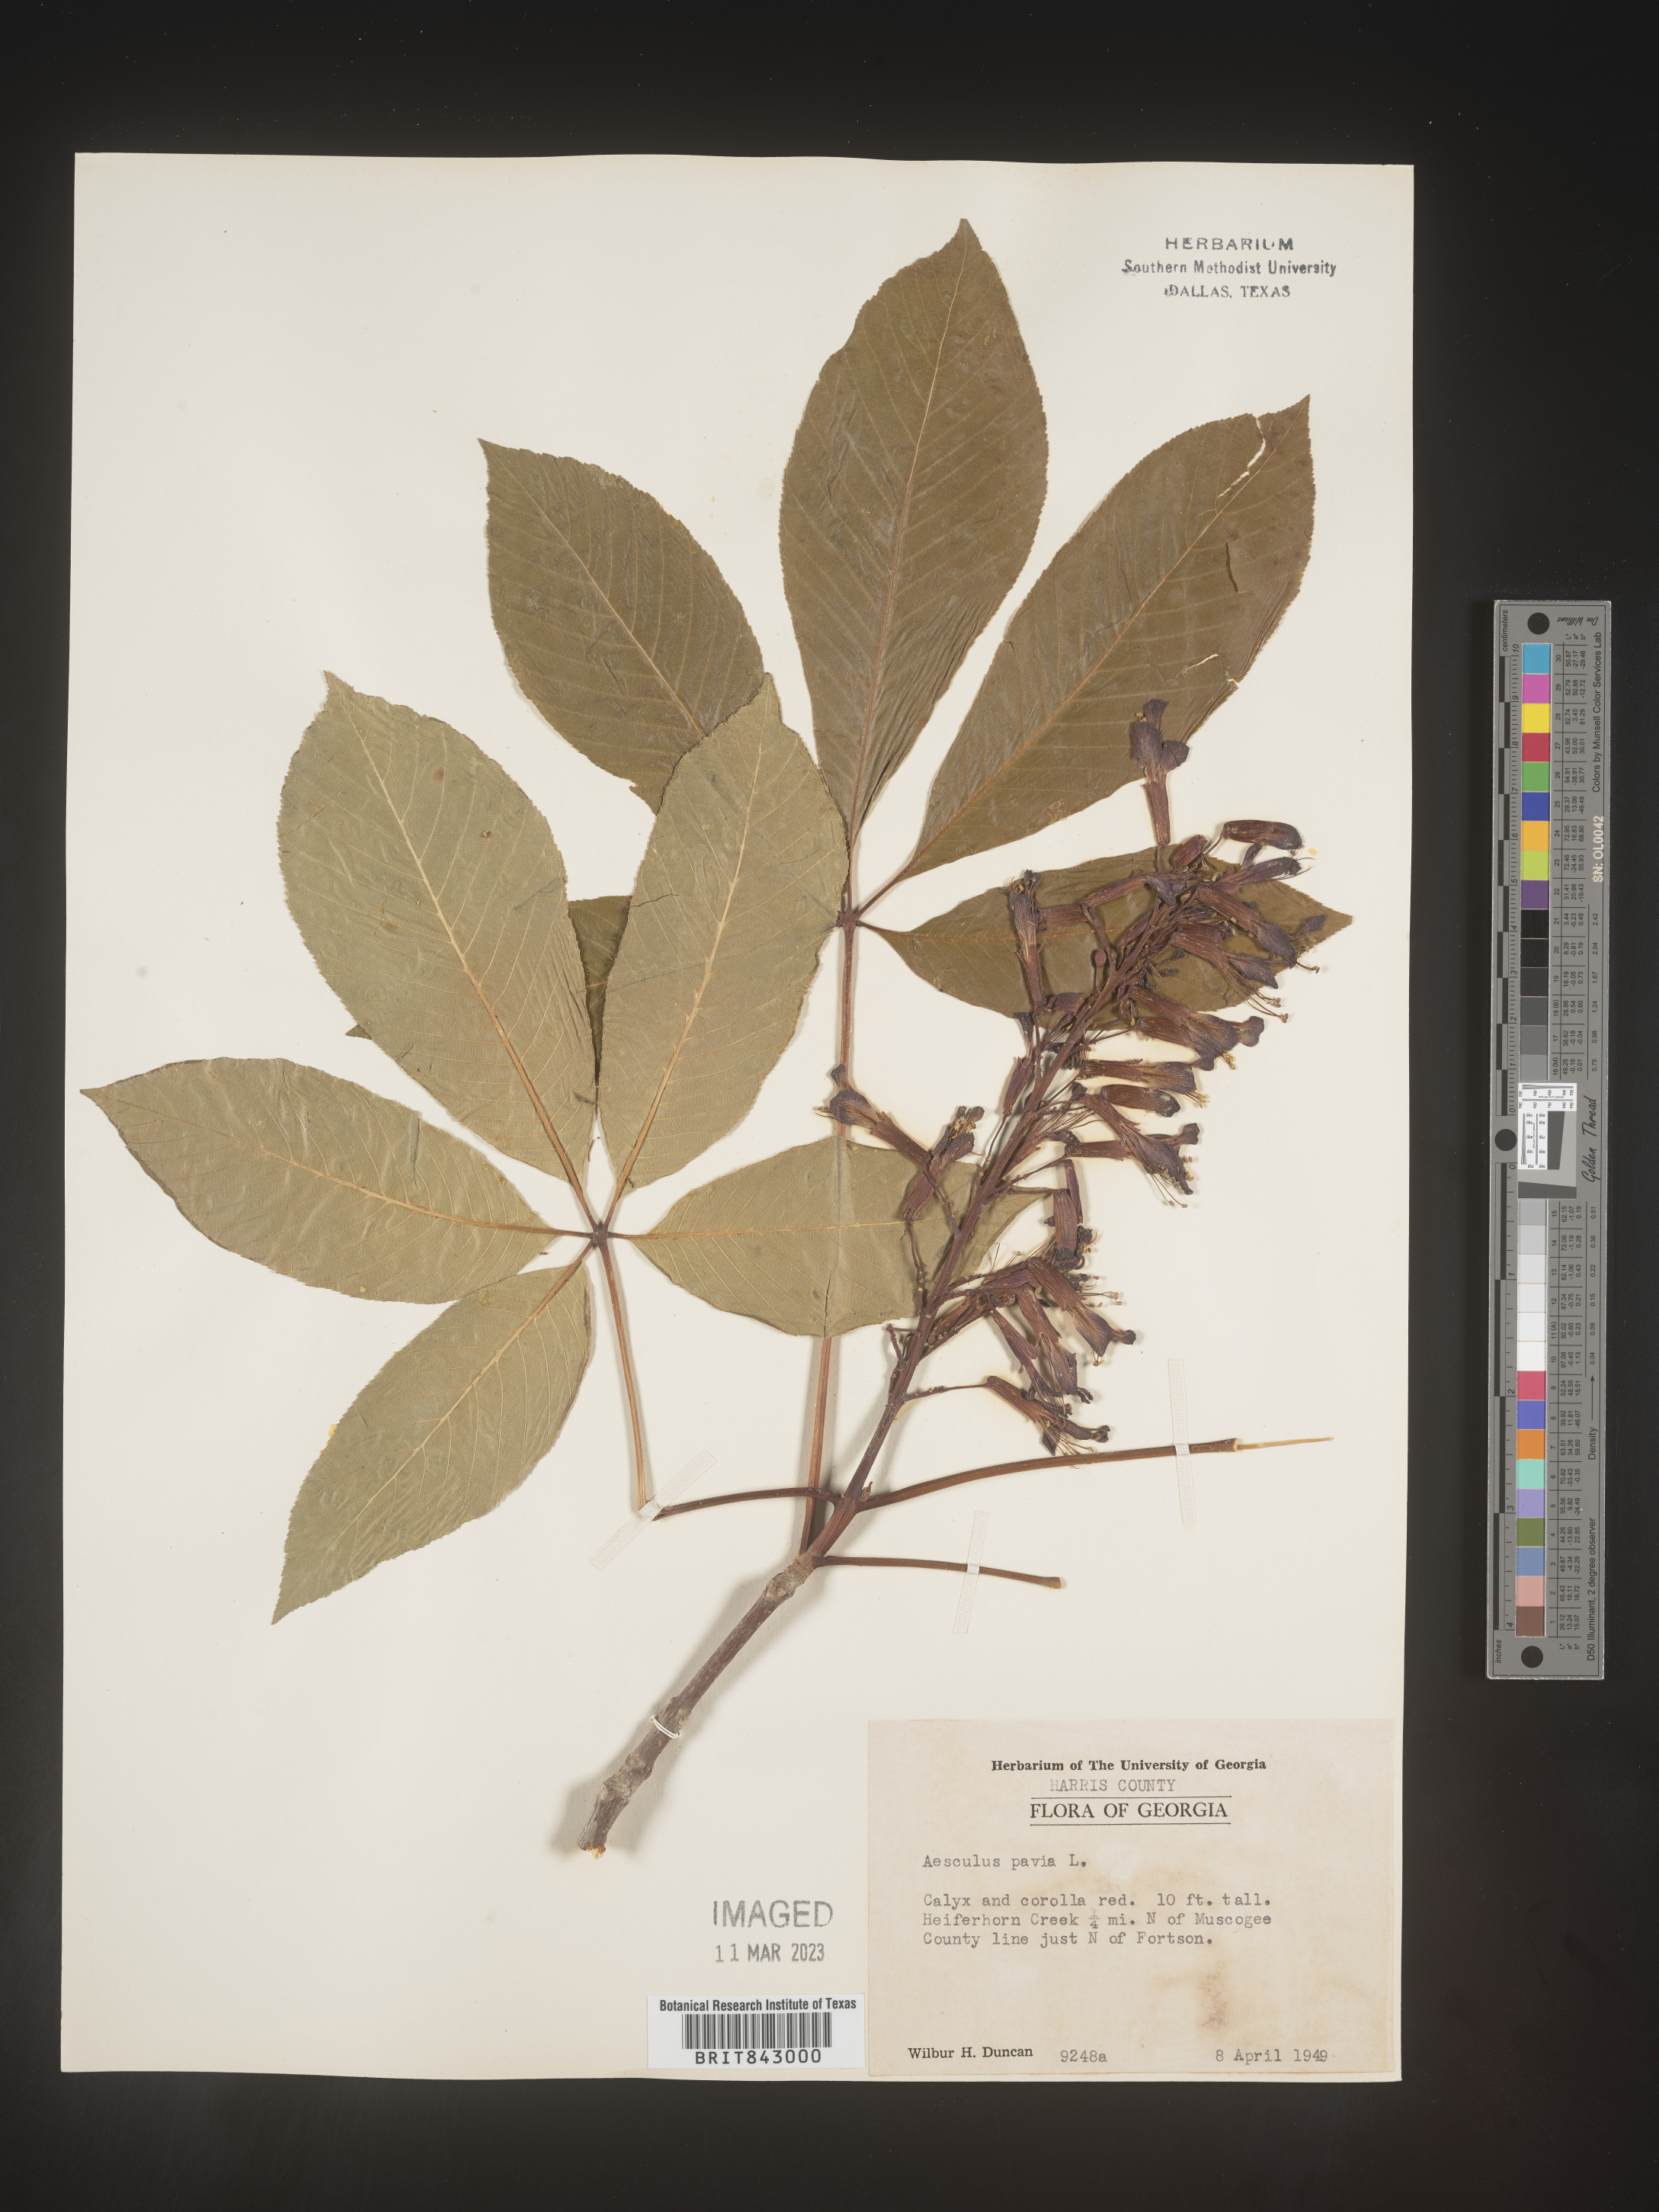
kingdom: Plantae
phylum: Tracheophyta
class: Magnoliopsida
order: Sapindales
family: Sapindaceae
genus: Aesculus
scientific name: Aesculus pavia
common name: Red buckeye
